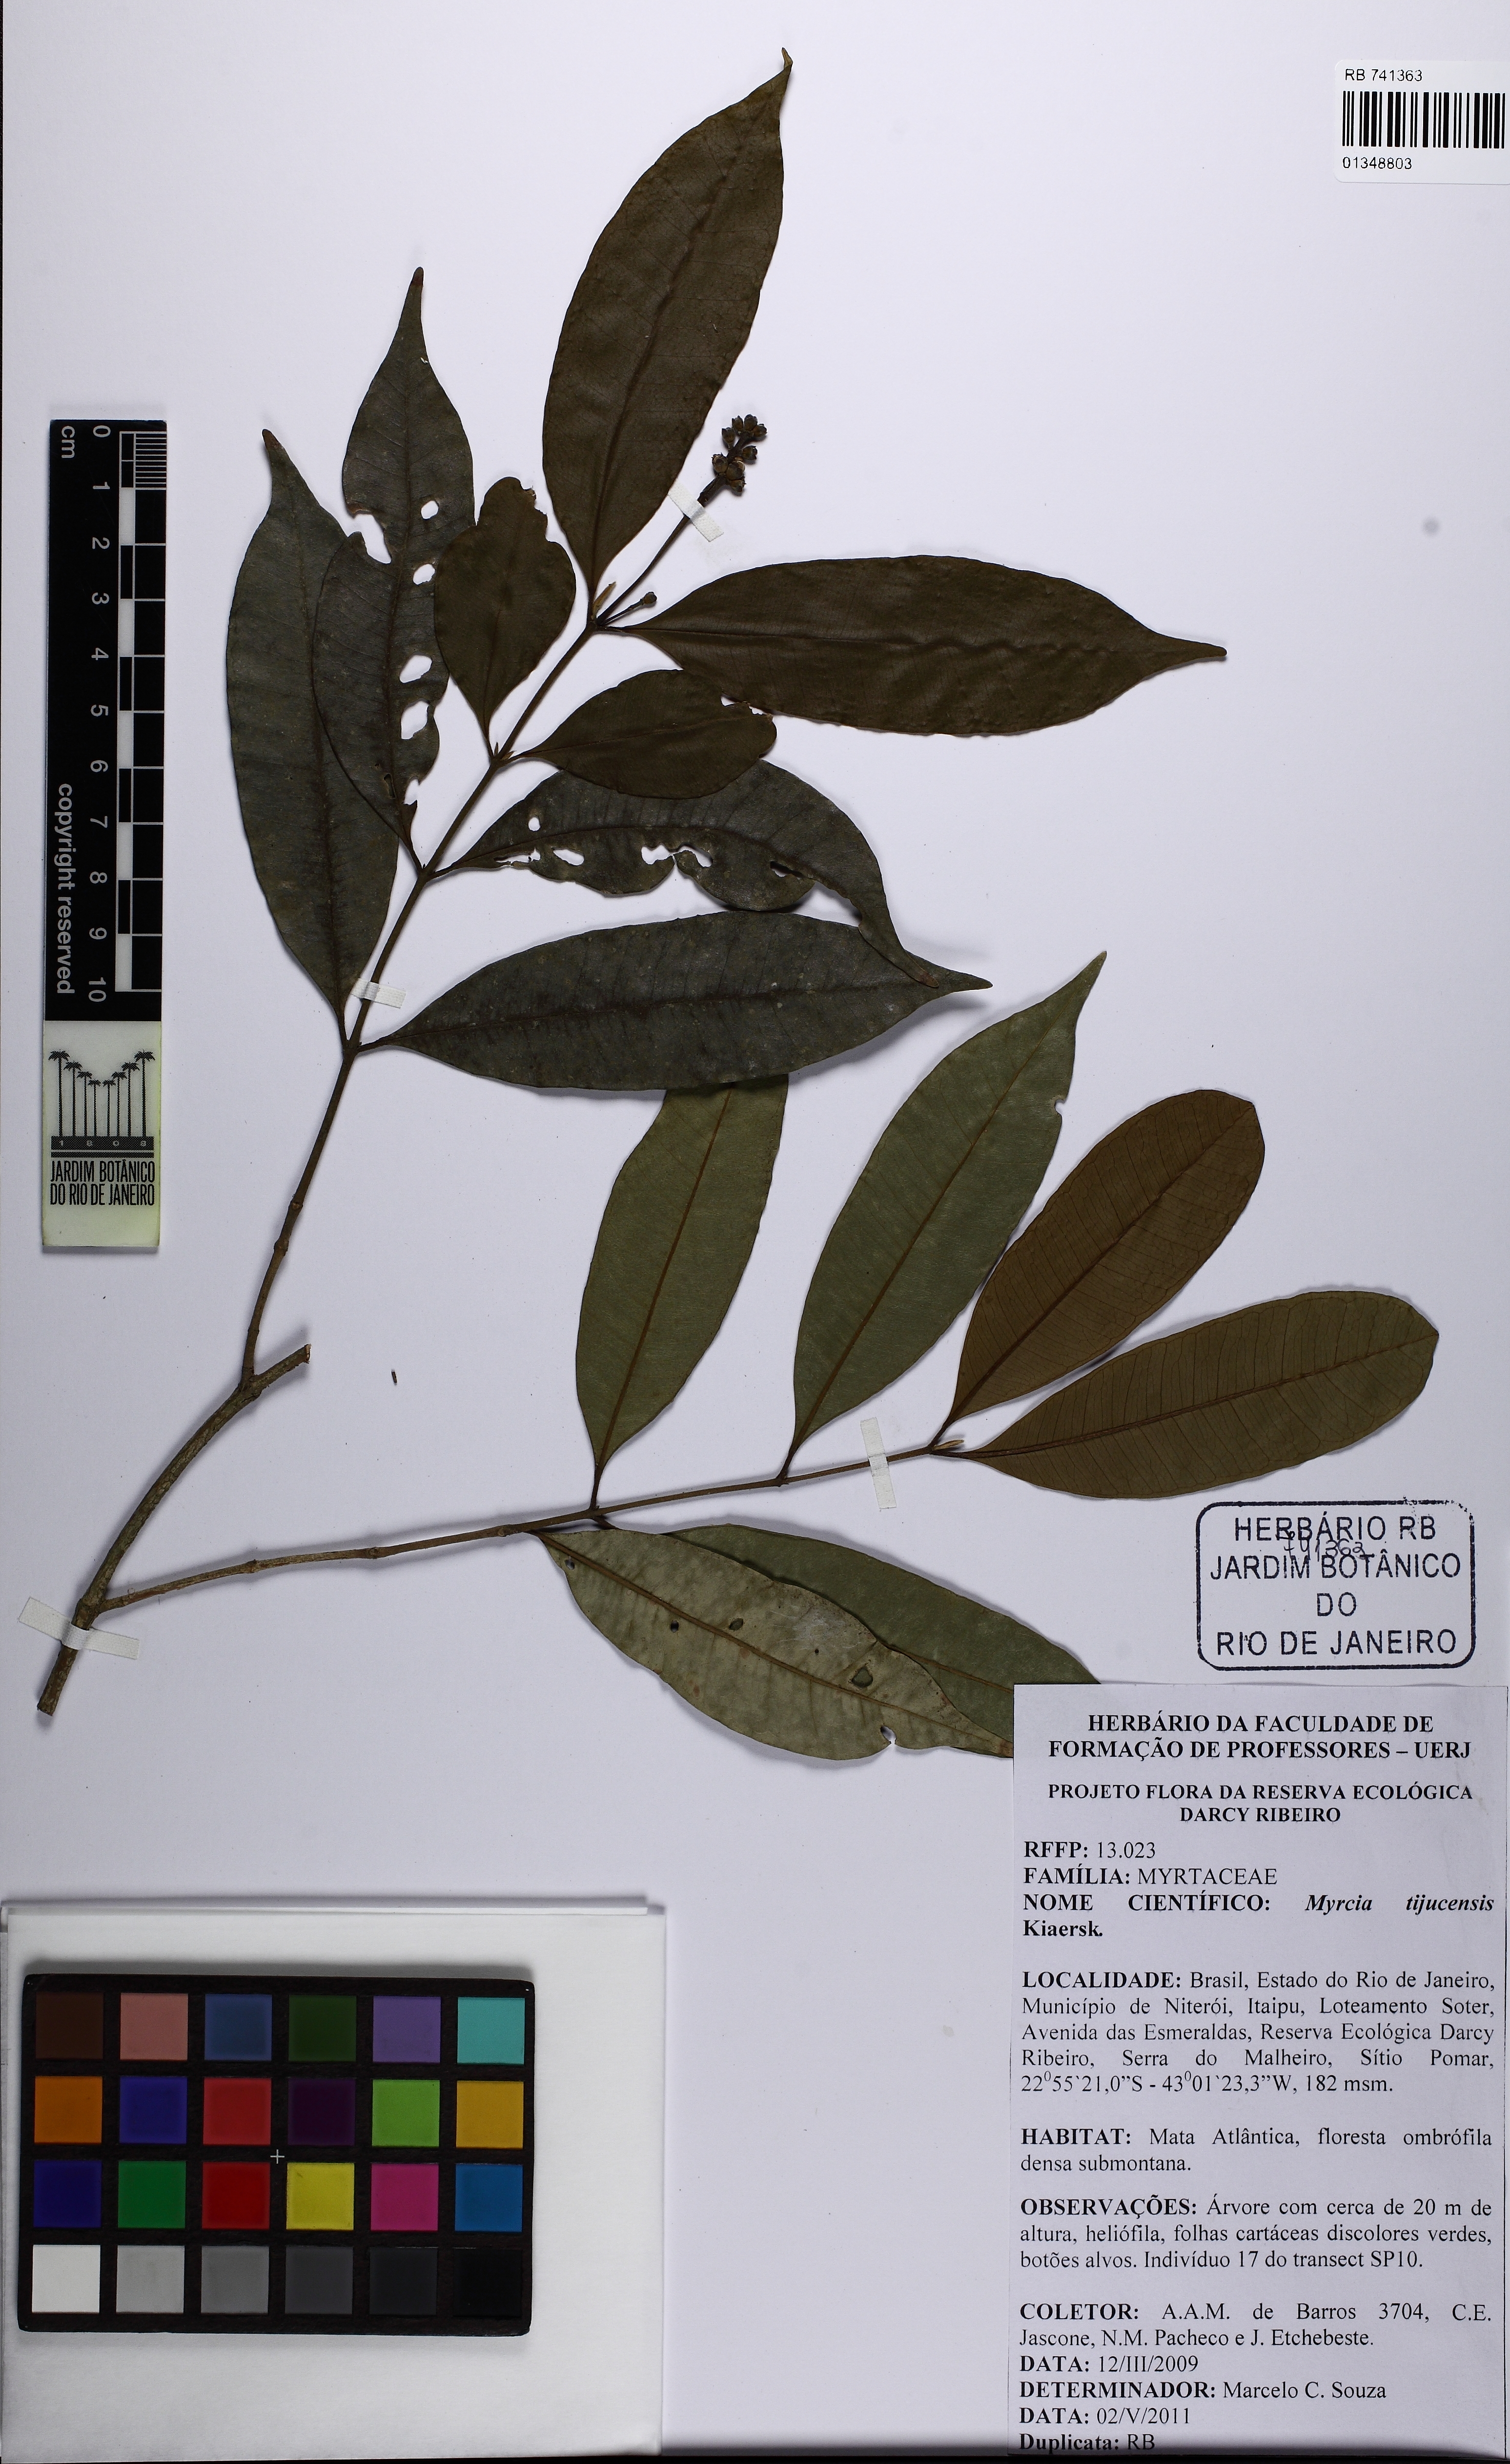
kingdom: Plantae
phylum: Tracheophyta
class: Magnoliopsida
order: Myrtales
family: Myrtaceae
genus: Myrcia
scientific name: Myrcia tijucensis
